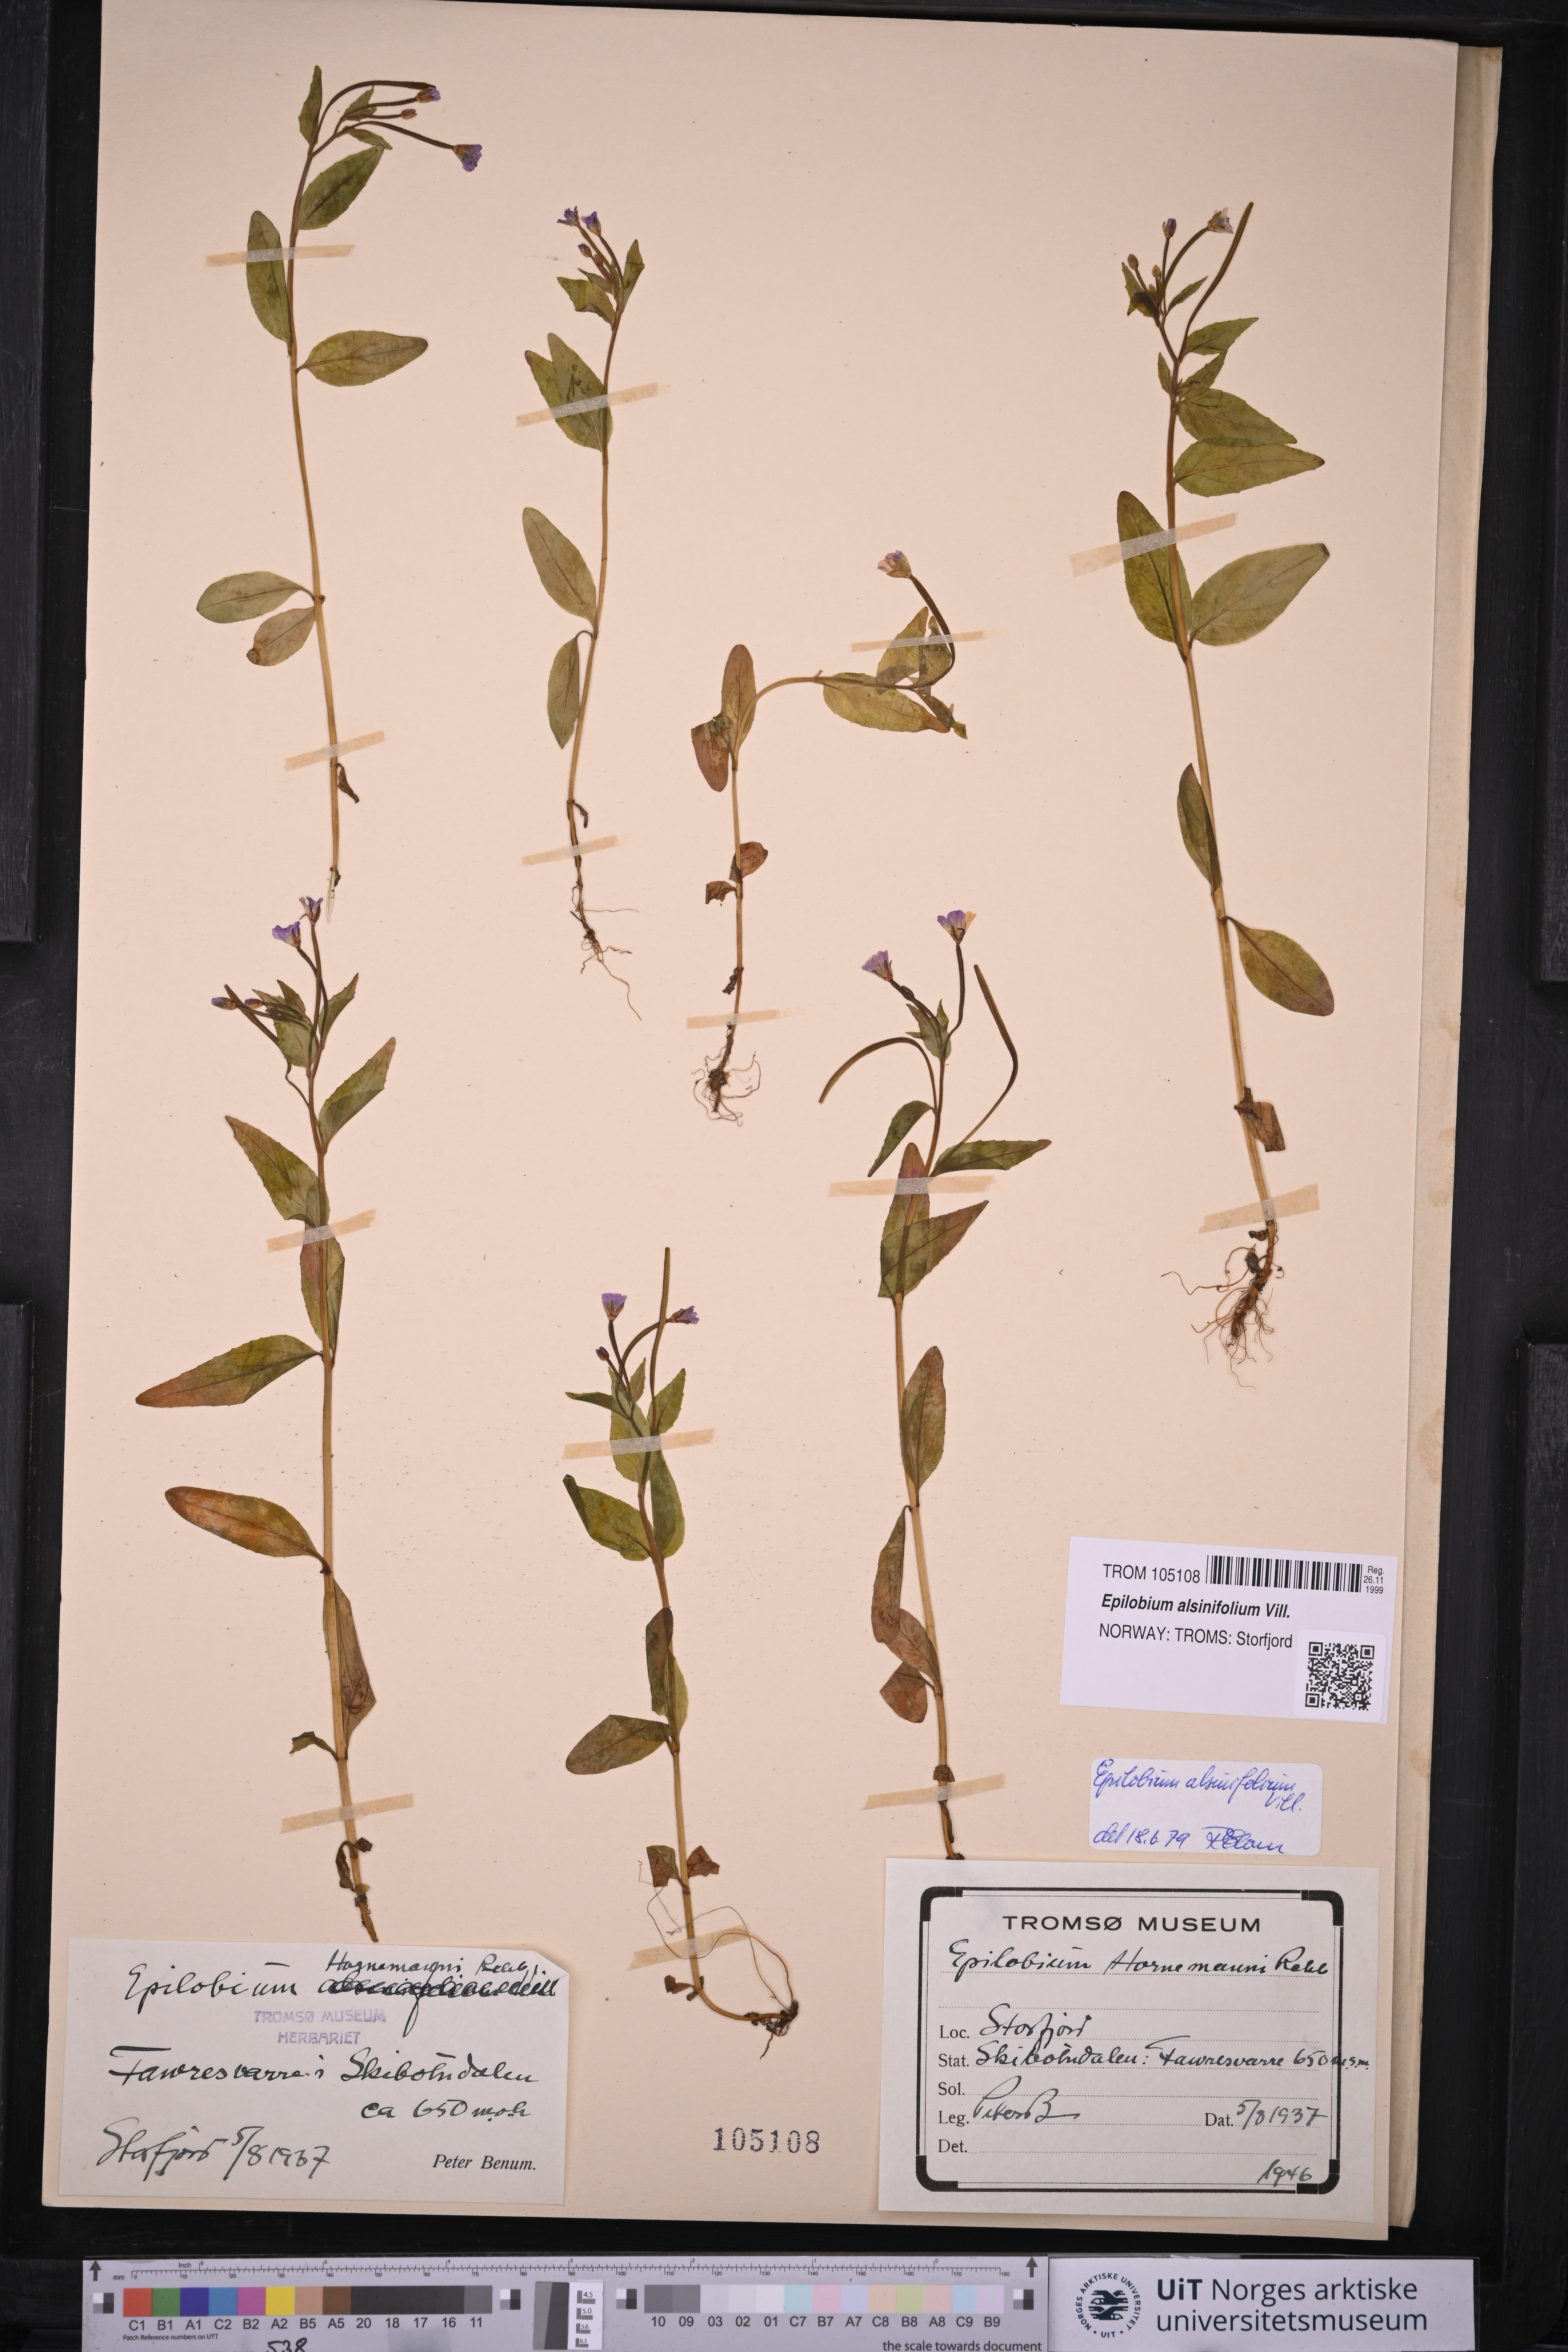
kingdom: Plantae
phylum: Tracheophyta
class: Magnoliopsida
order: Myrtales
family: Onagraceae
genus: Epilobium
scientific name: Epilobium alsinifolium
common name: Chickweed willowherb
